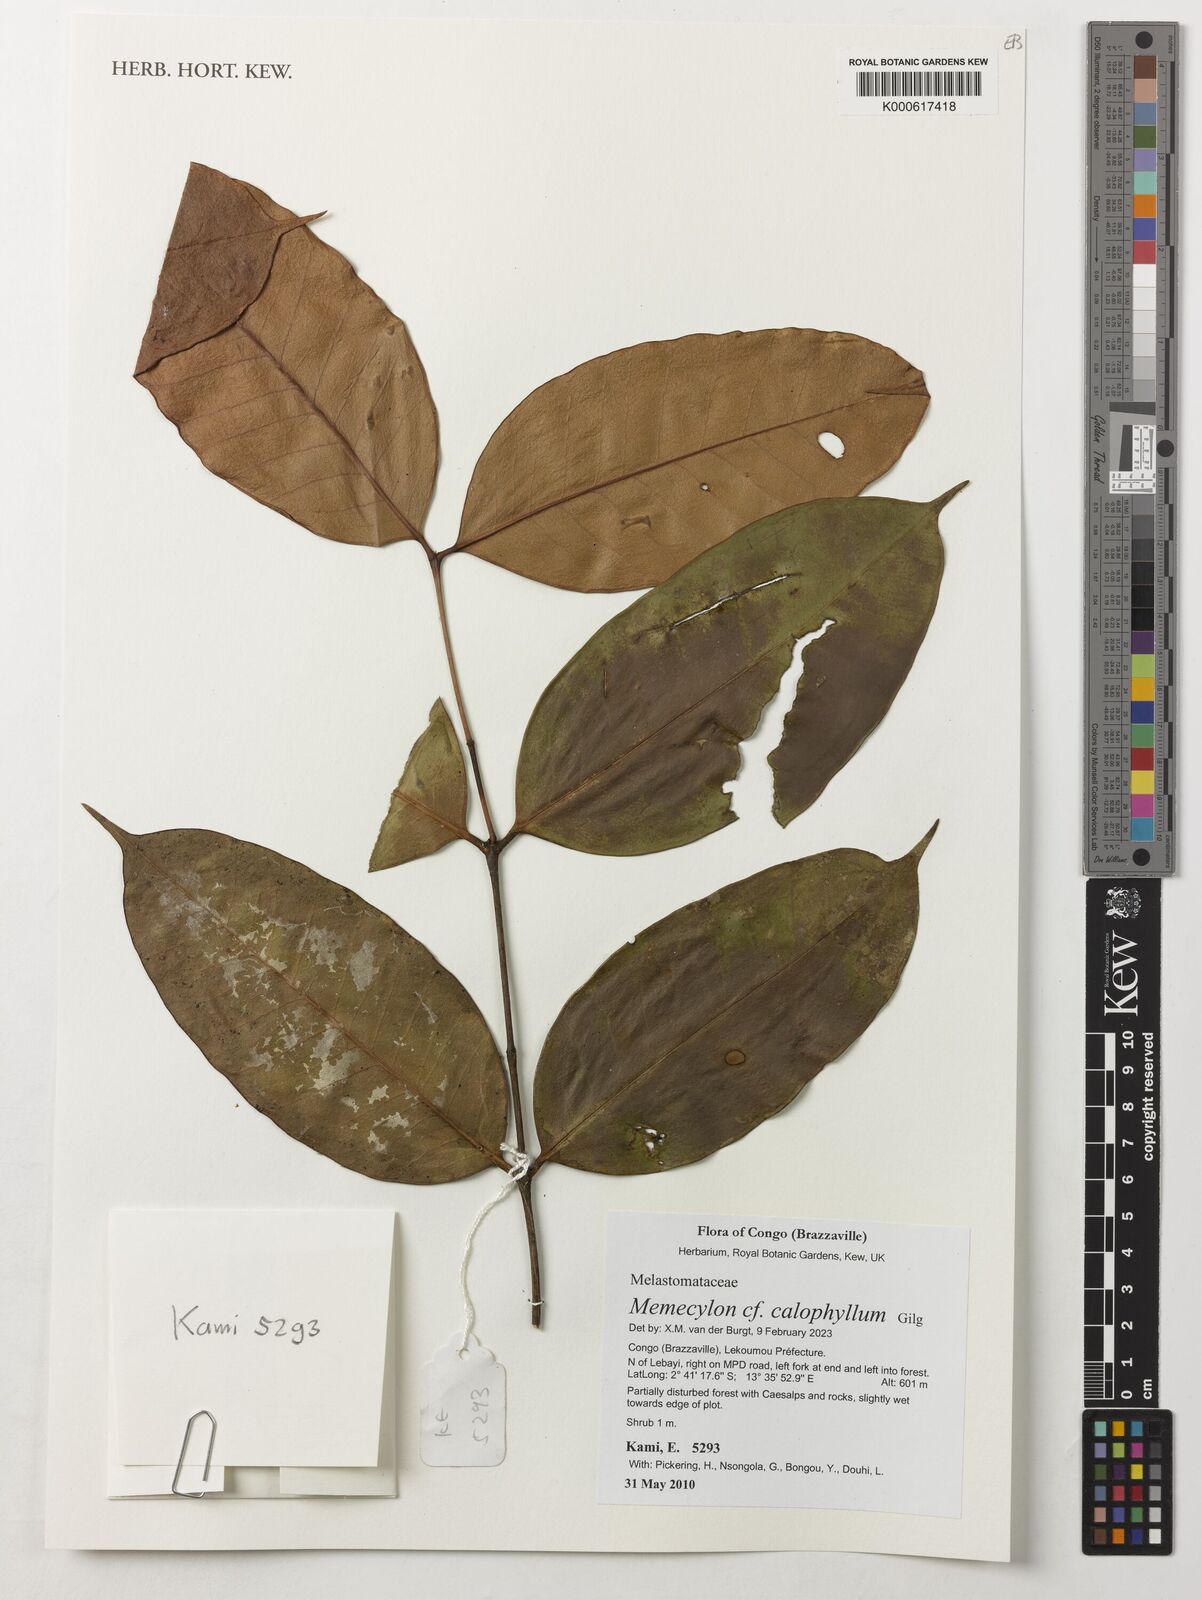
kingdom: Plantae
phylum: Tracheophyta
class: Magnoliopsida
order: Myrtales
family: Melastomataceae
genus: Memecylon
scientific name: Memecylon calophyllum
